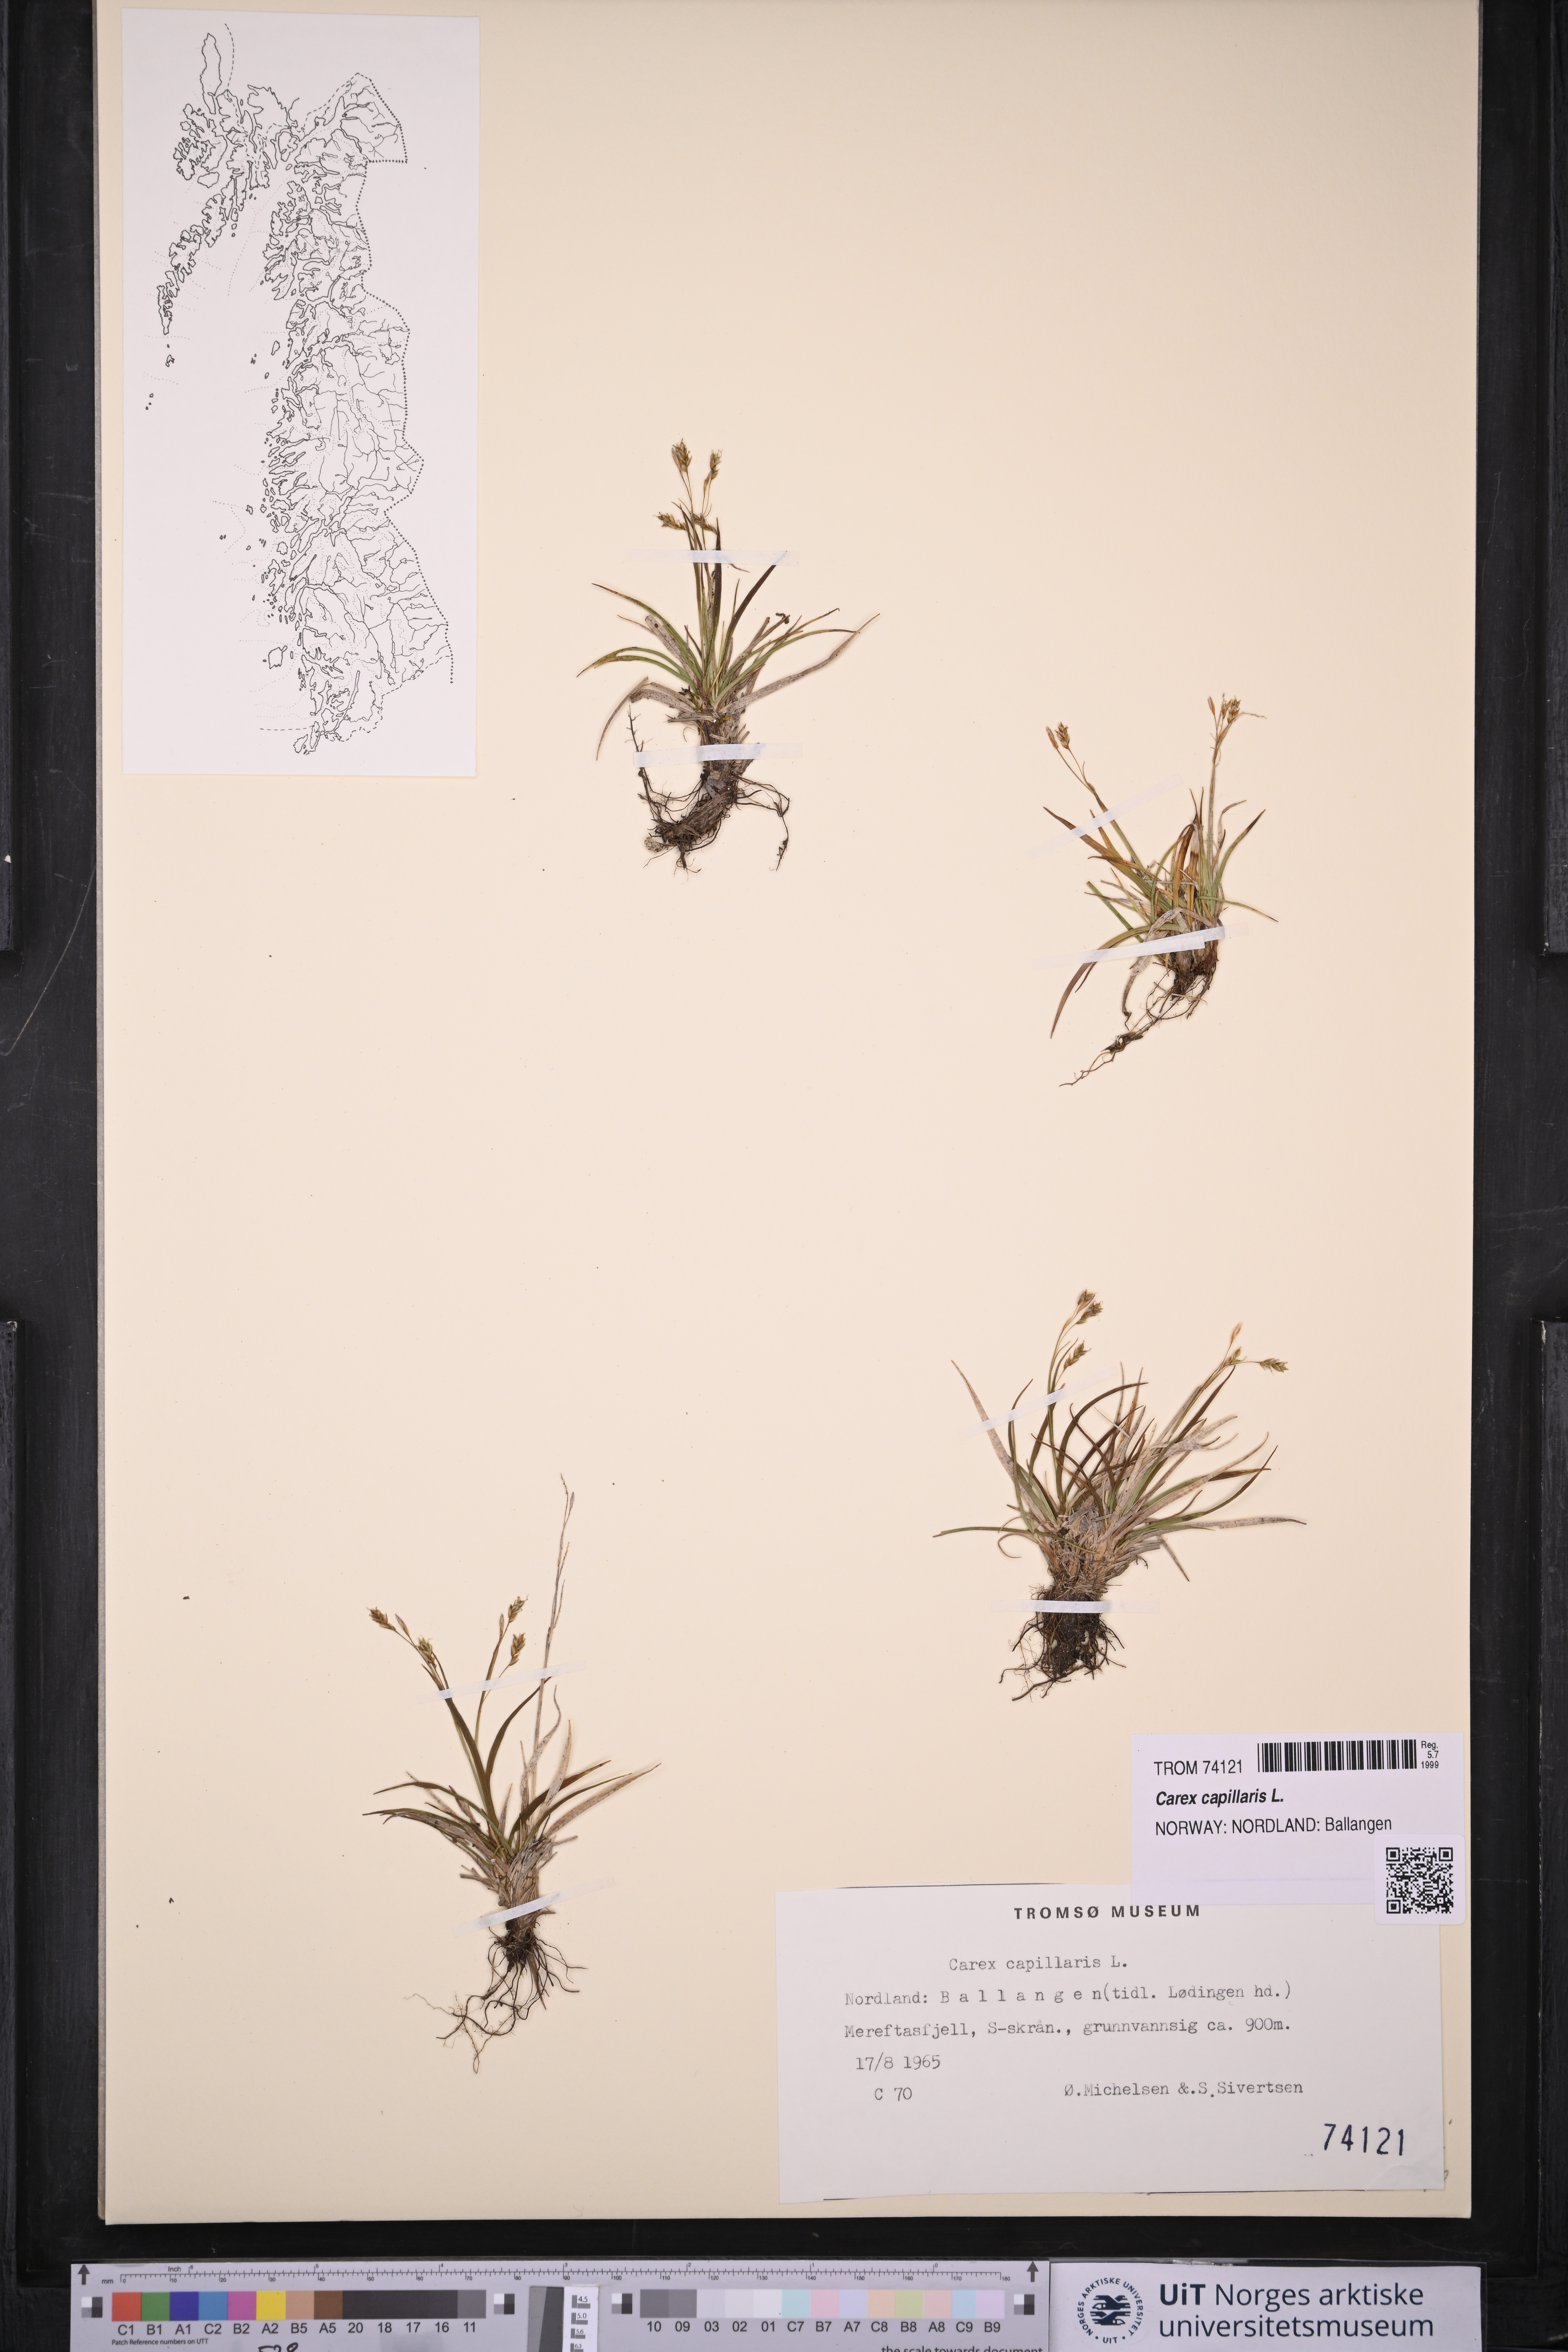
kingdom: Plantae
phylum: Tracheophyta
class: Liliopsida
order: Poales
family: Cyperaceae
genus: Carex
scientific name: Carex capillaris
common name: Hair sedge
